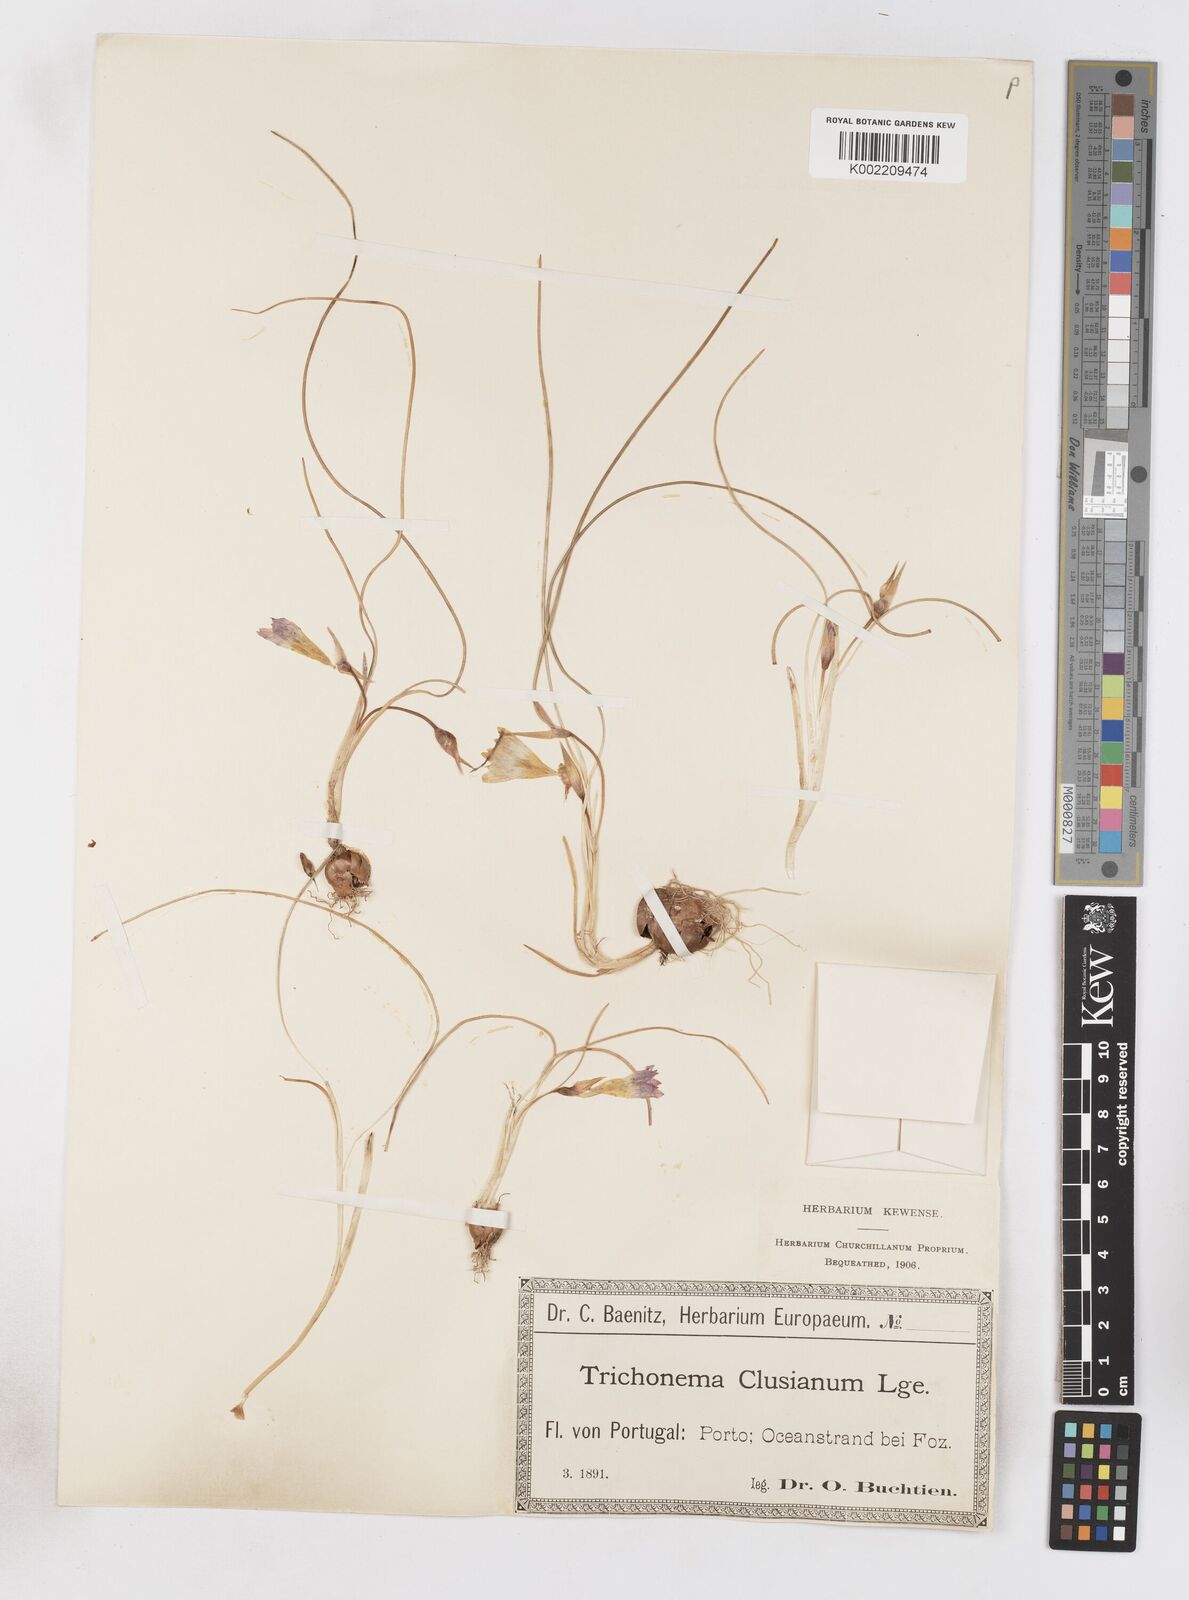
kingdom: Plantae
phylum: Tracheophyta
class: Liliopsida
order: Asparagales
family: Iridaceae
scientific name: Iridaceae
